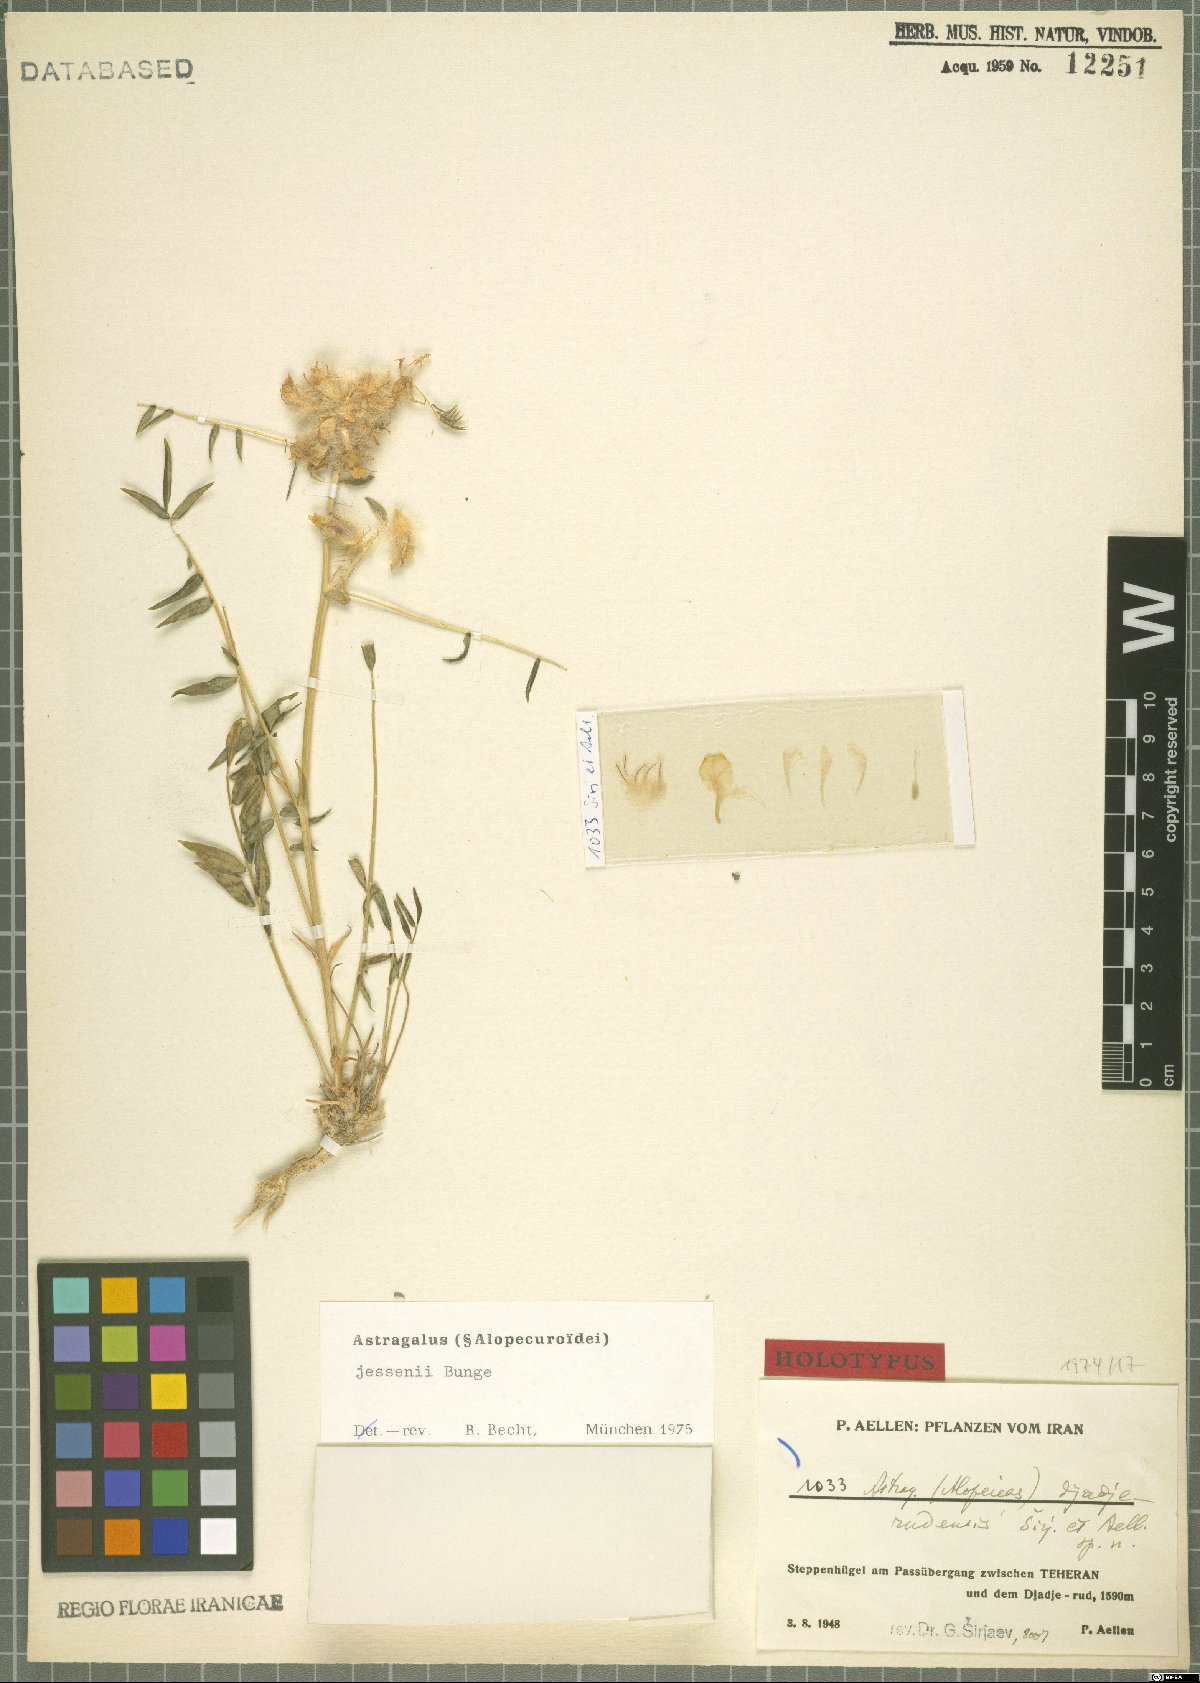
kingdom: Plantae
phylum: Tracheophyta
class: Magnoliopsida
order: Fabales
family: Fabaceae
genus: Astragalus
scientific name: Astragalus jessenii
